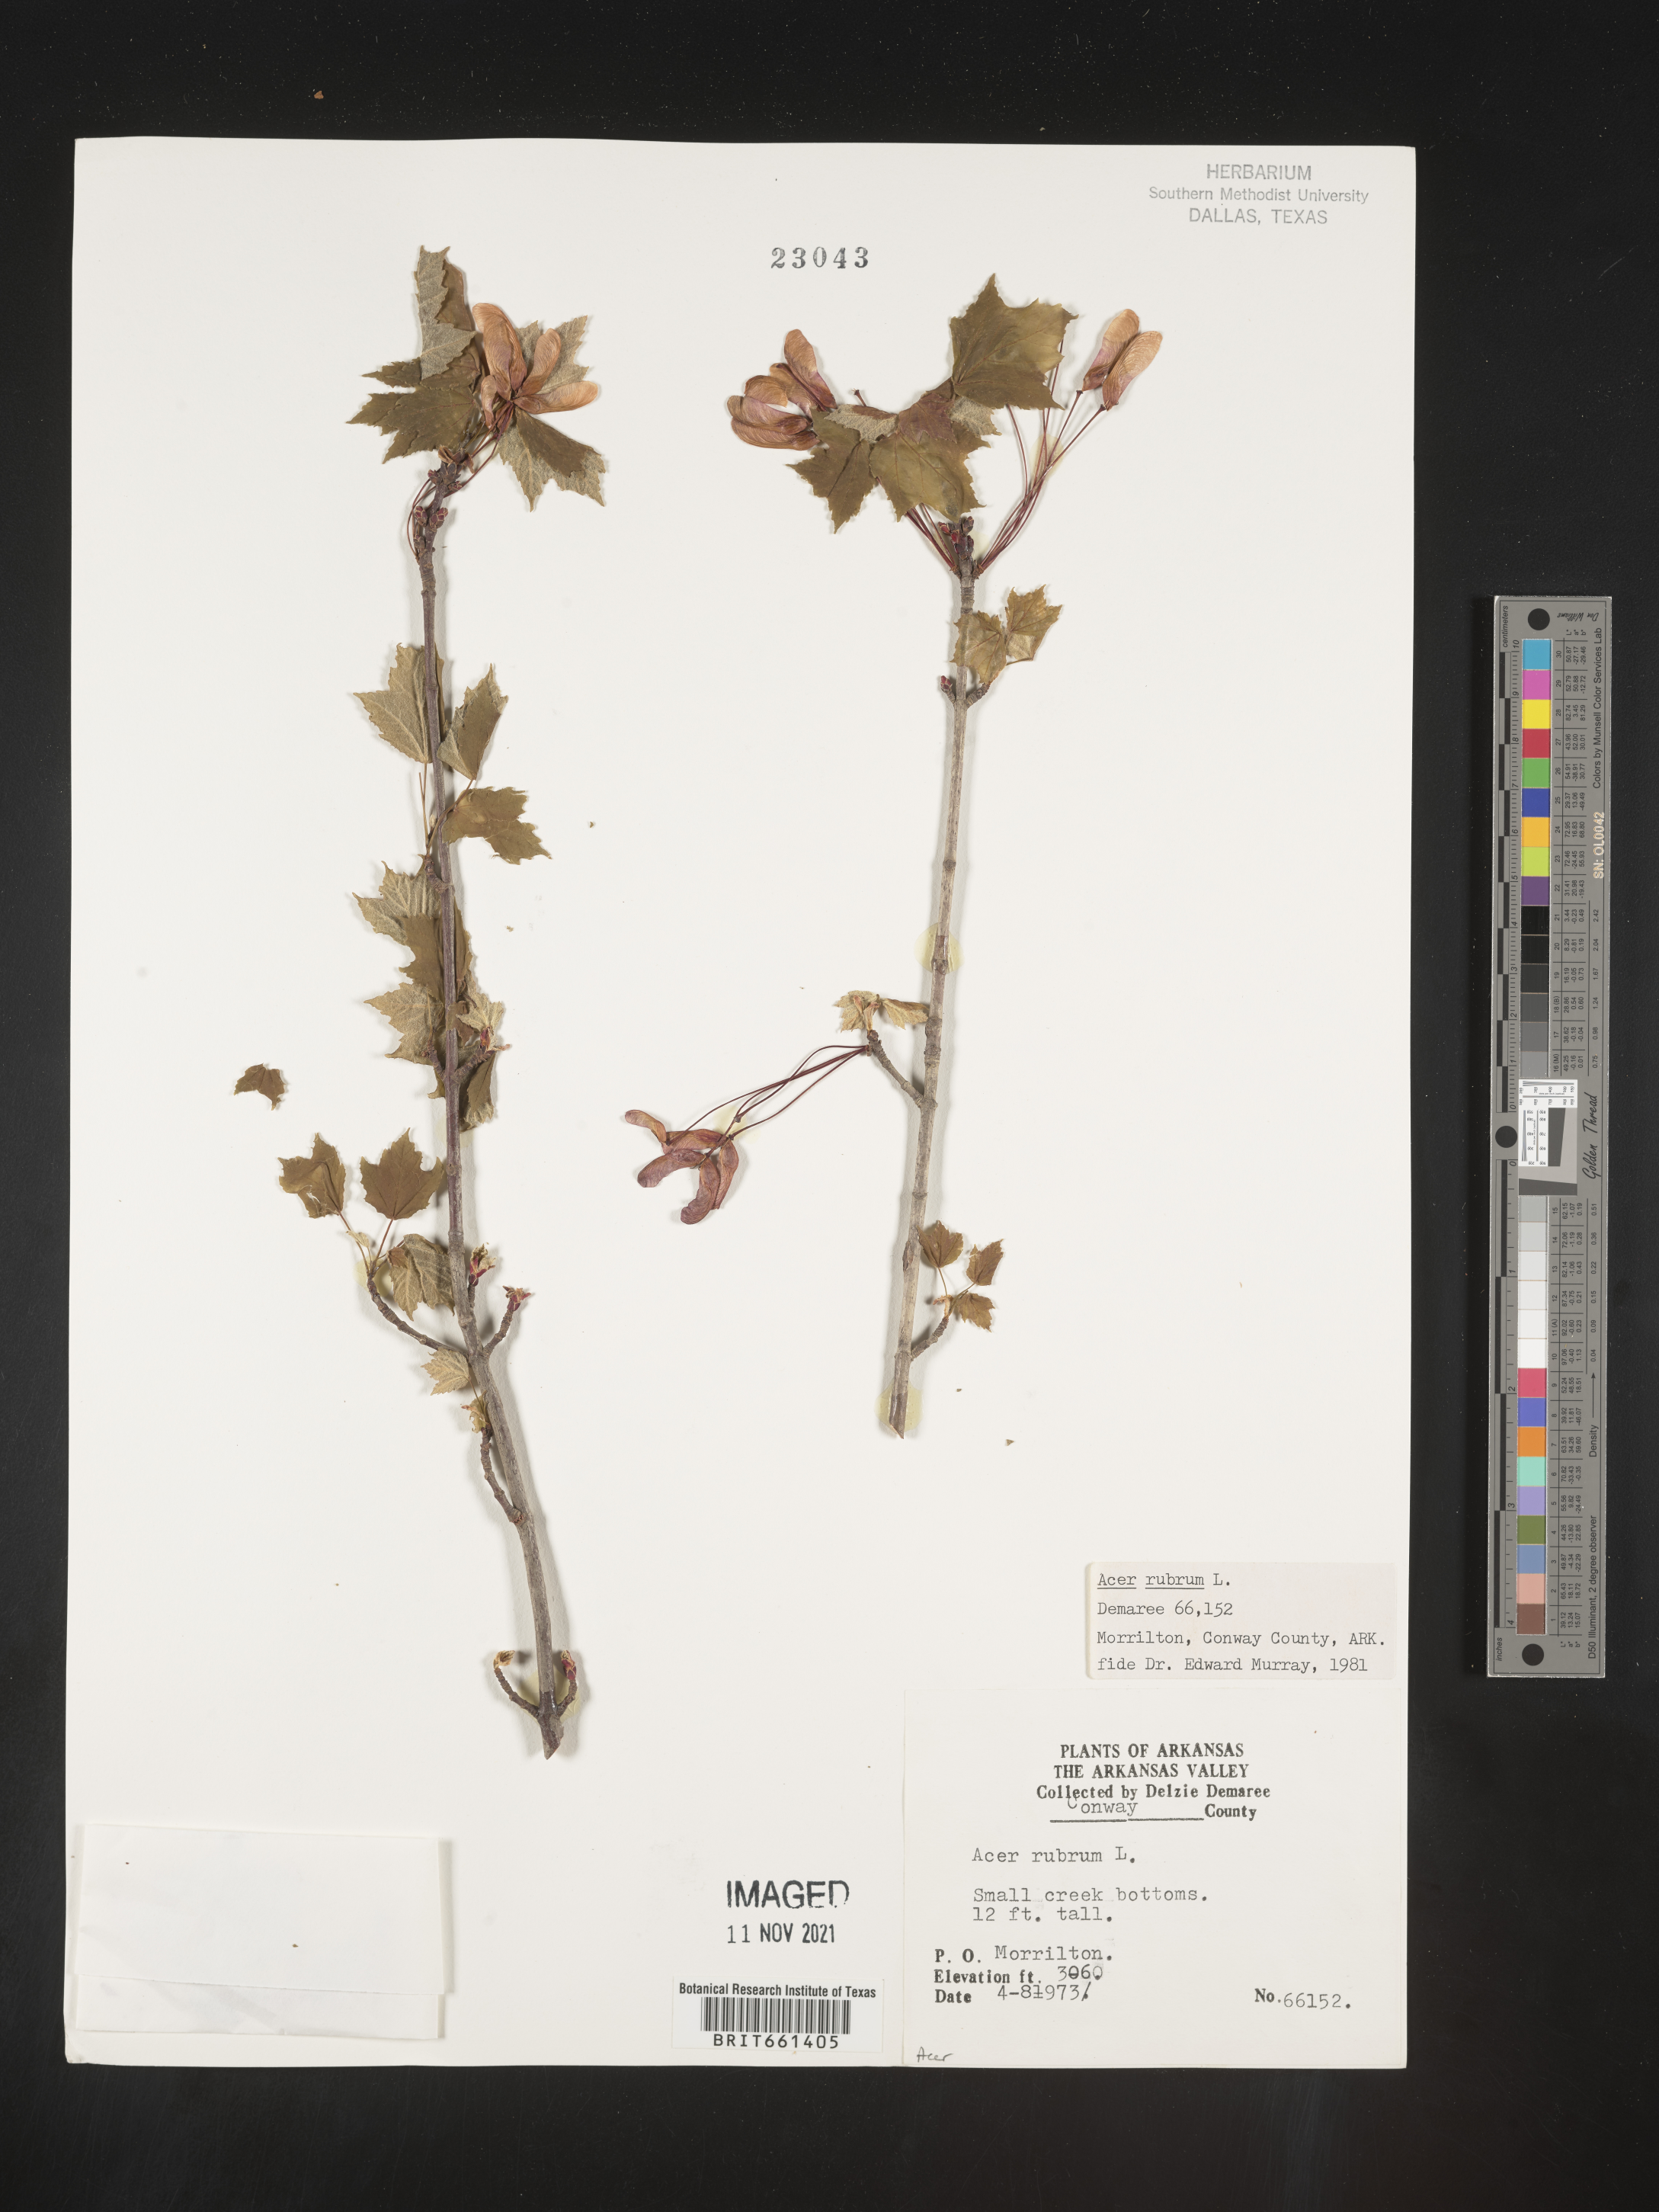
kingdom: Plantae
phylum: Tracheophyta
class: Magnoliopsida
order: Sapindales
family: Sapindaceae
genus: Acer
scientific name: Acer rubrum
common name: Red maple
